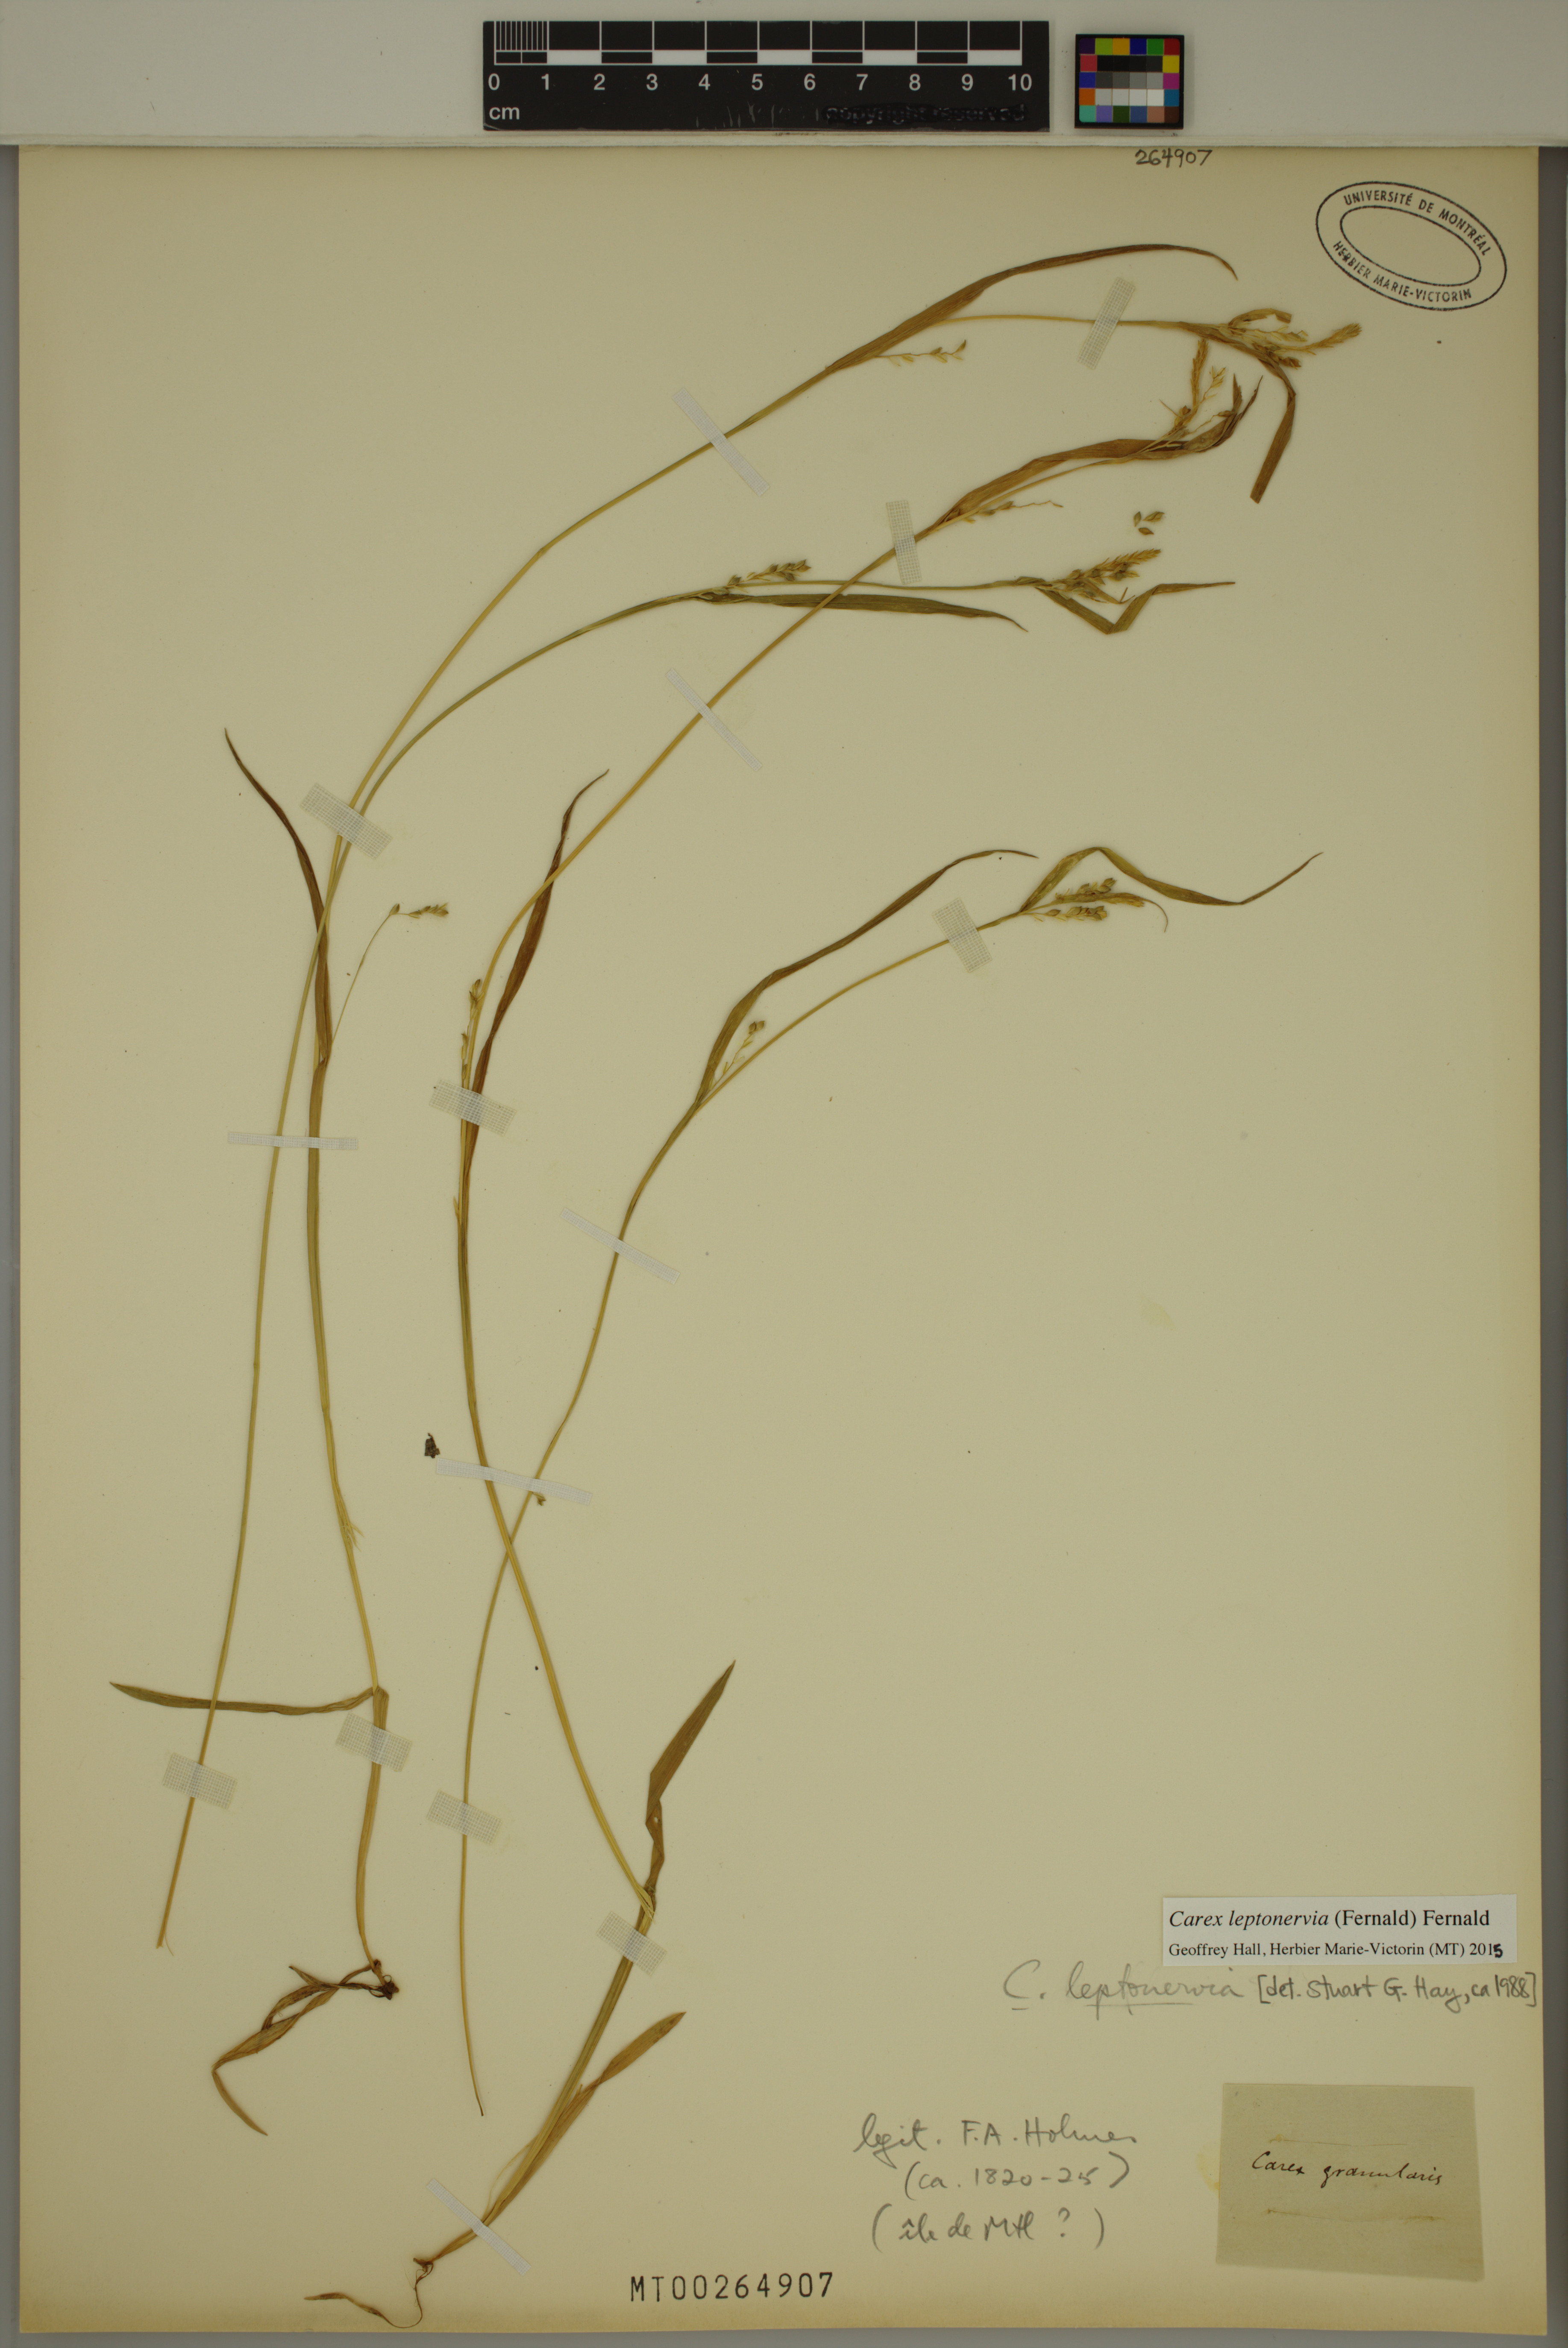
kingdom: Plantae
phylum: Tracheophyta
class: Liliopsida
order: Poales
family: Cyperaceae
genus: Carex
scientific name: Carex leptonervia
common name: Few-nerved wood sedge
